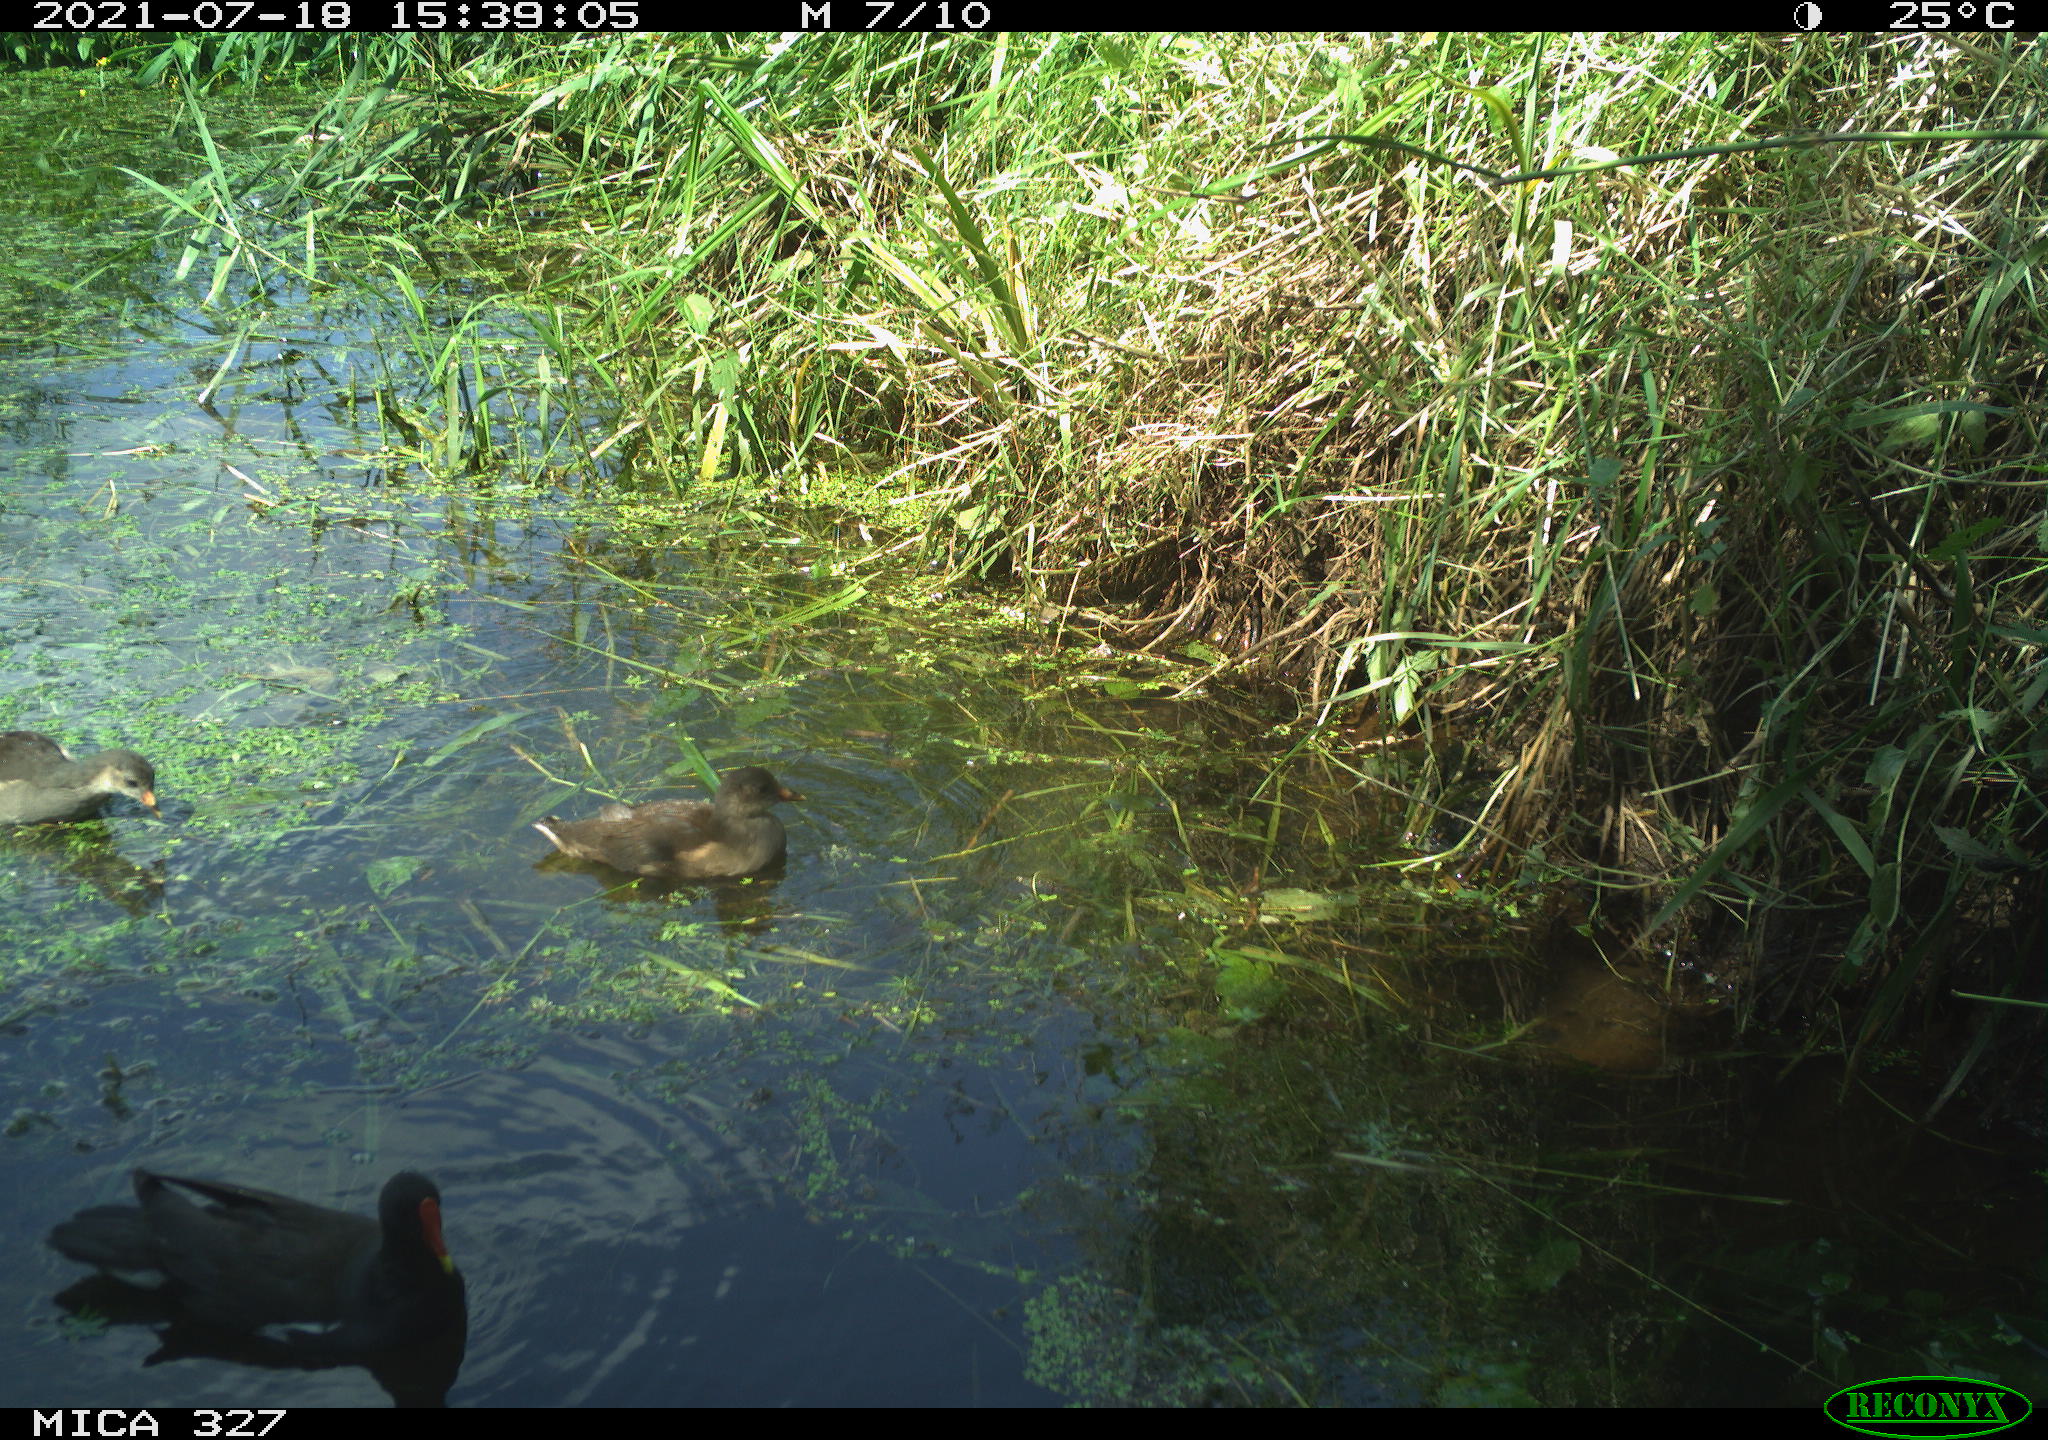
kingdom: Animalia
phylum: Chordata
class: Aves
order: Gruiformes
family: Rallidae
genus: Gallinula
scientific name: Gallinula chloropus
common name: Common moorhen
